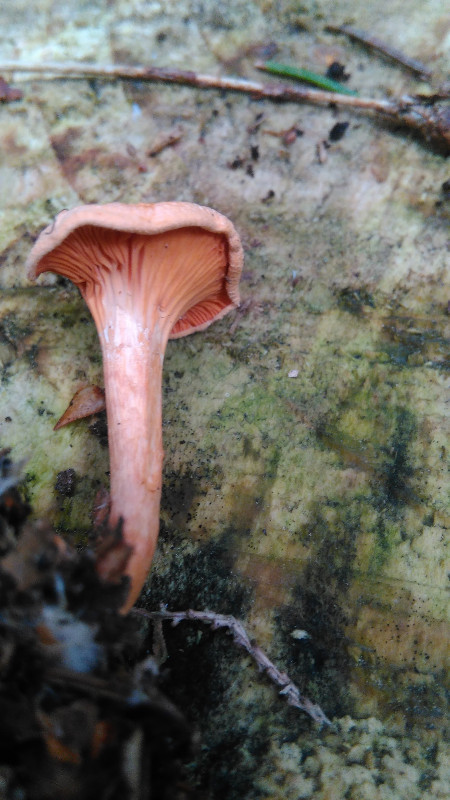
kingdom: Fungi
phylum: Basidiomycota
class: Agaricomycetes
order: Boletales
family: Hygrophoropsidaceae
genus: Hygrophoropsis
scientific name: Hygrophoropsis aurantiaca
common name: almindelig orangekantarel
